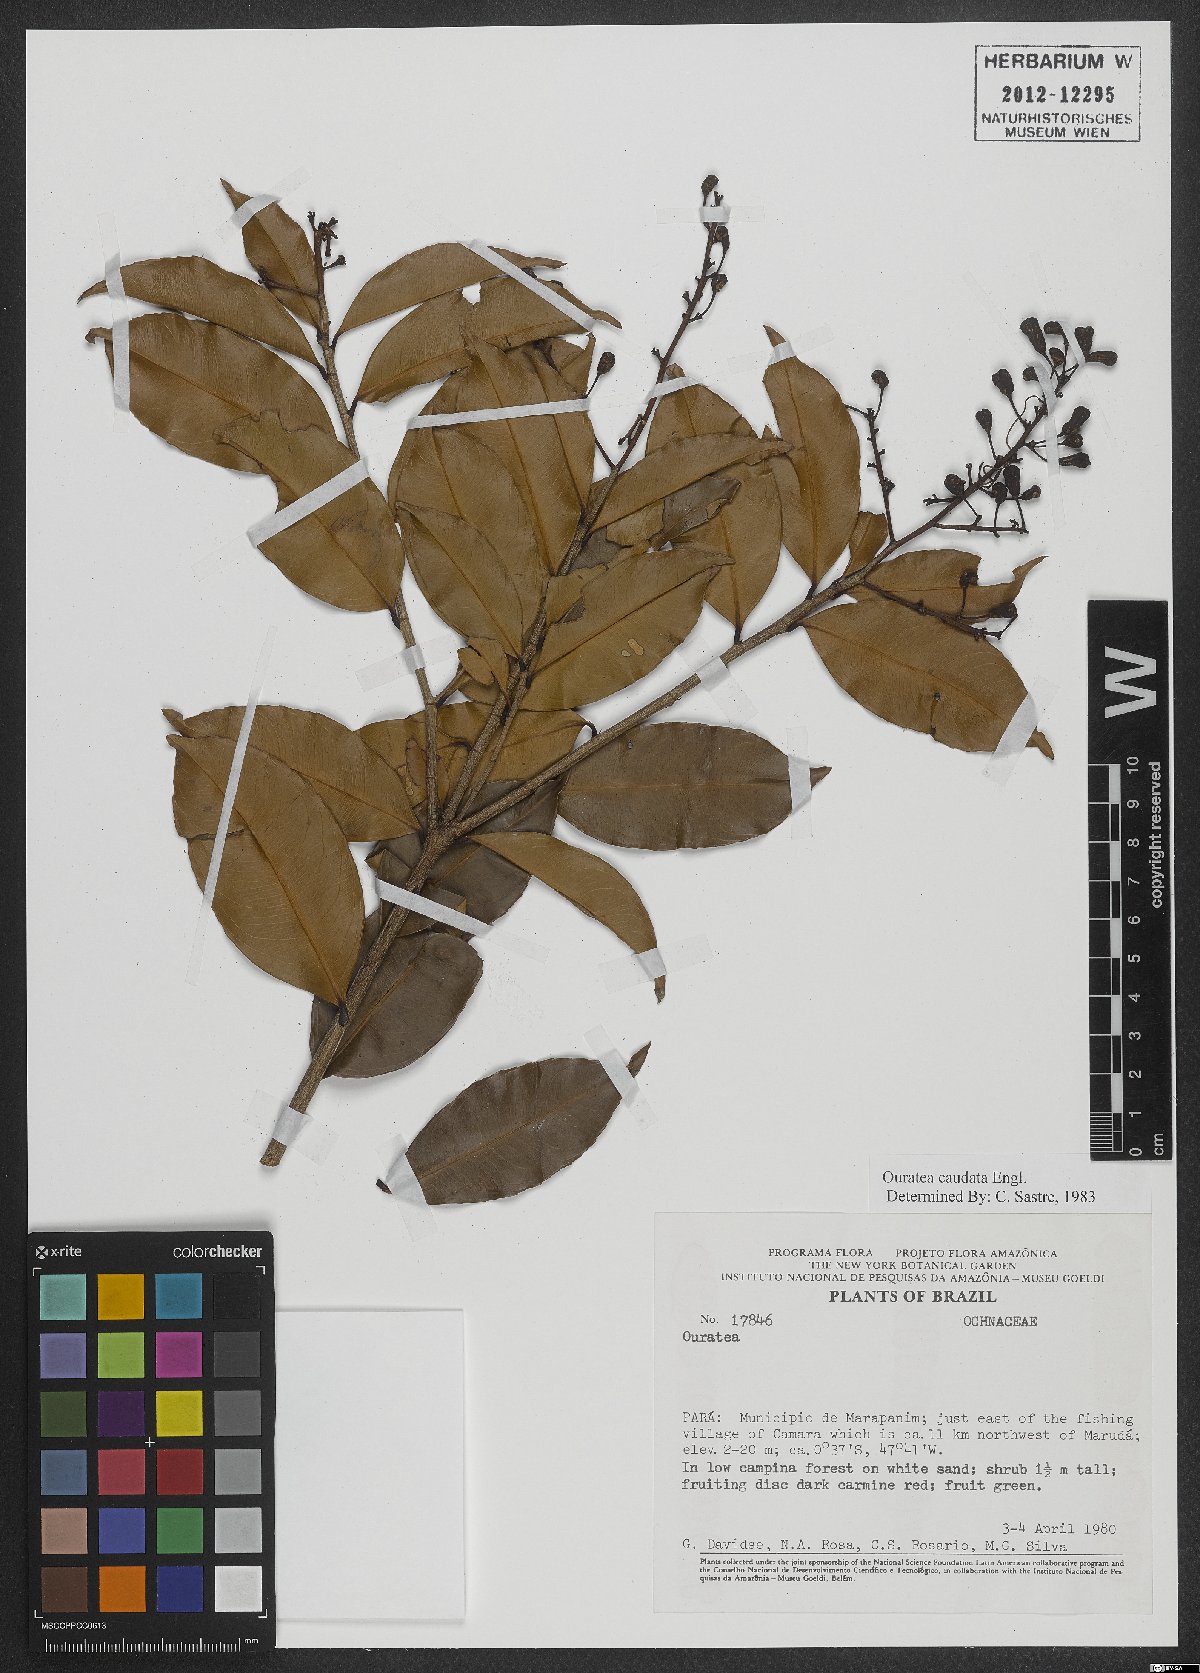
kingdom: Plantae
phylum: Tracheophyta
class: Magnoliopsida
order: Malpighiales
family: Ochnaceae
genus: Ouratea
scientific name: Ouratea caudata
